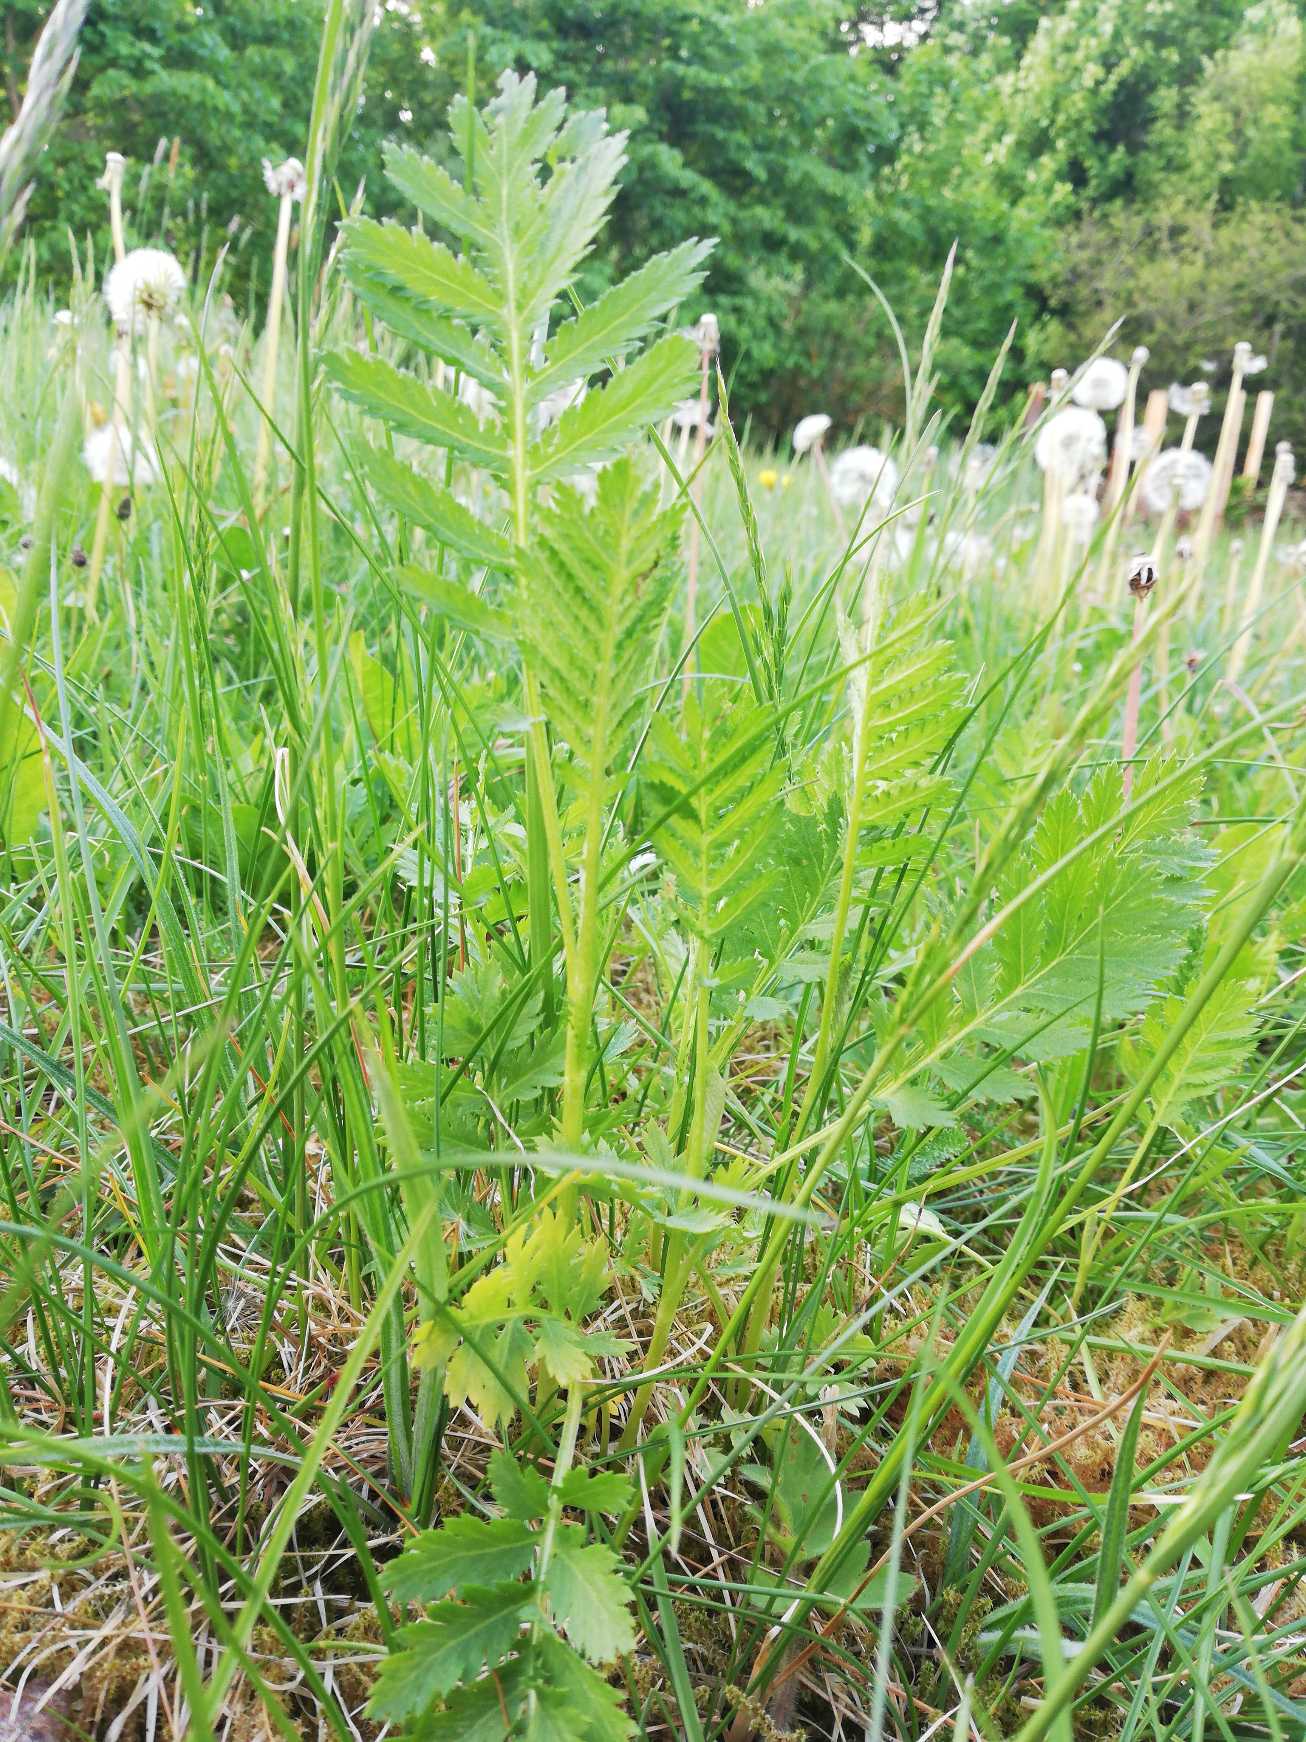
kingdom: Plantae
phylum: Tracheophyta
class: Magnoliopsida
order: Asterales
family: Asteraceae
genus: Tanacetum
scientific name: Tanacetum vulgare
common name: Rejnfan
